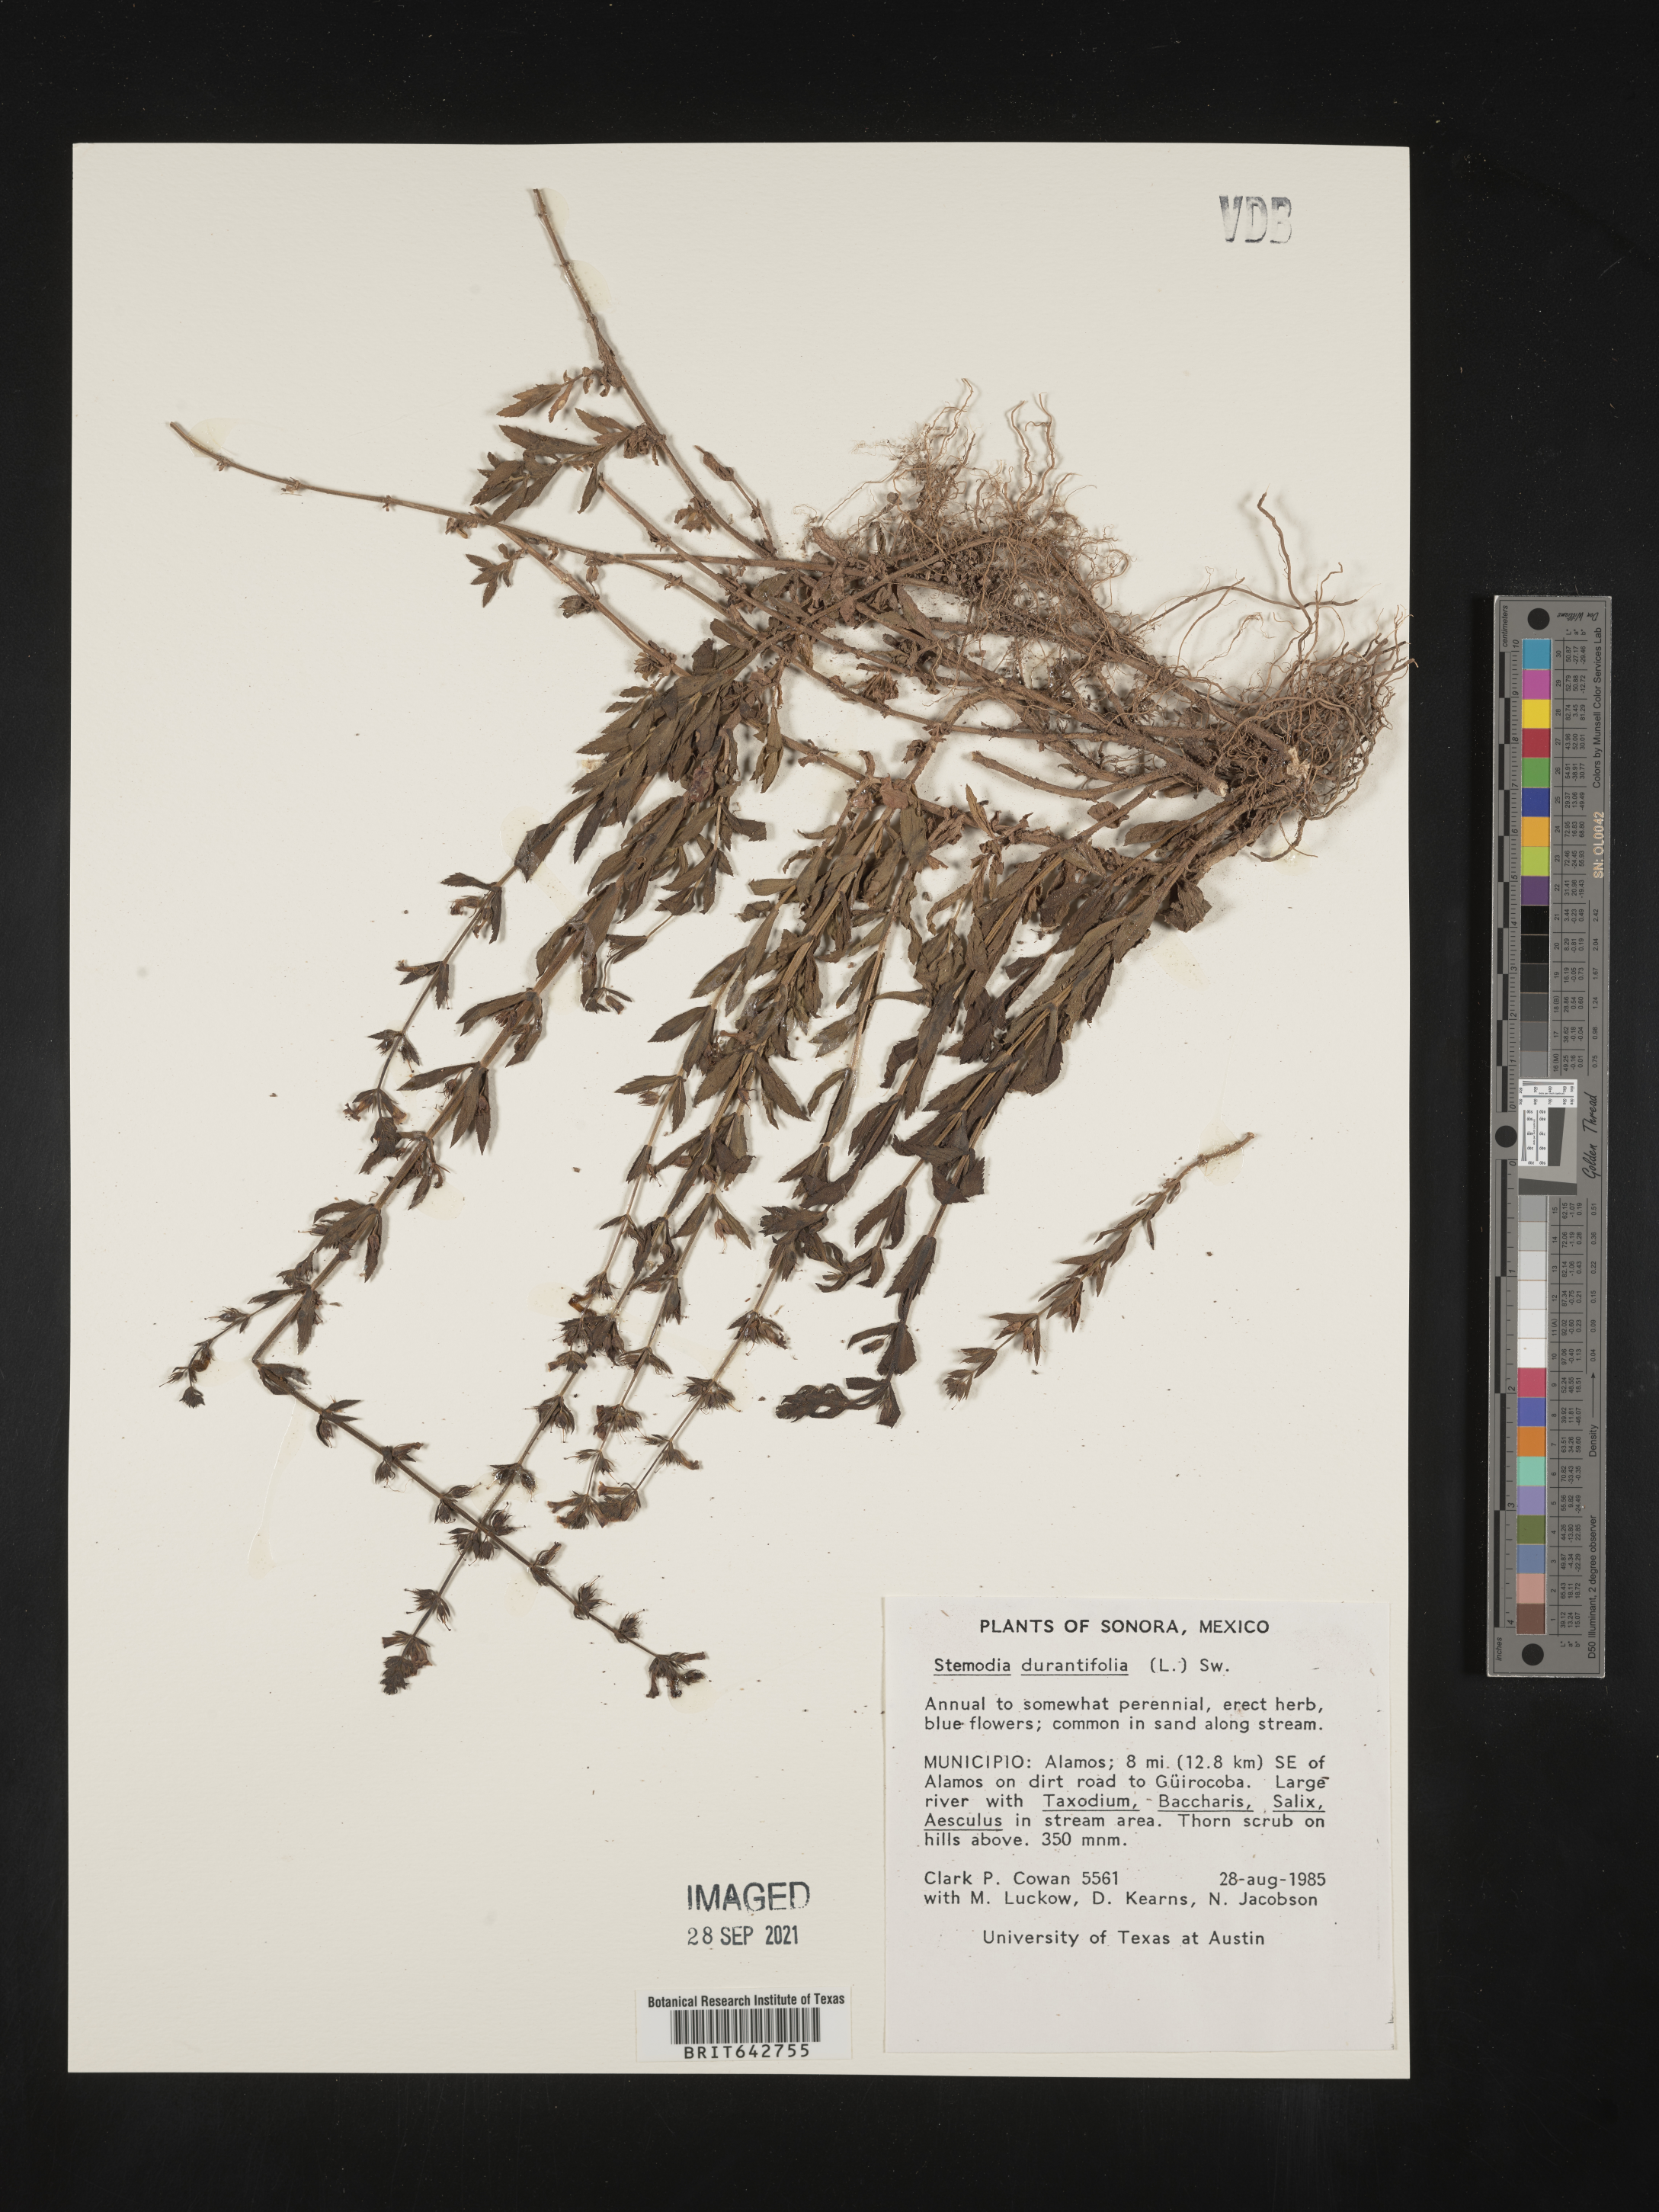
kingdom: Plantae
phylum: Tracheophyta
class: Magnoliopsida
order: Lamiales
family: Plantaginaceae
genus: Stemodia
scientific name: Stemodia
